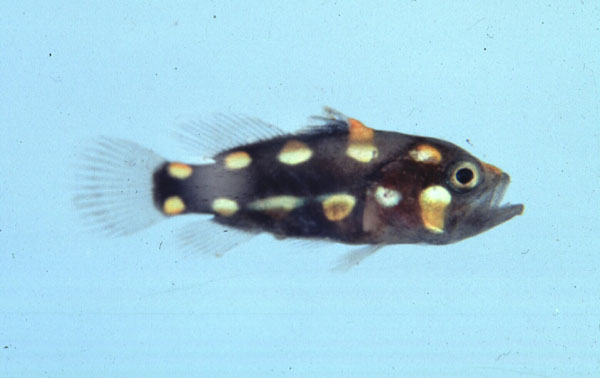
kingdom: Animalia
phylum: Chordata
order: Perciformes
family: Serranidae
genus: Grammistes
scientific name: Grammistes sexlineatus
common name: Sixline soapfish
